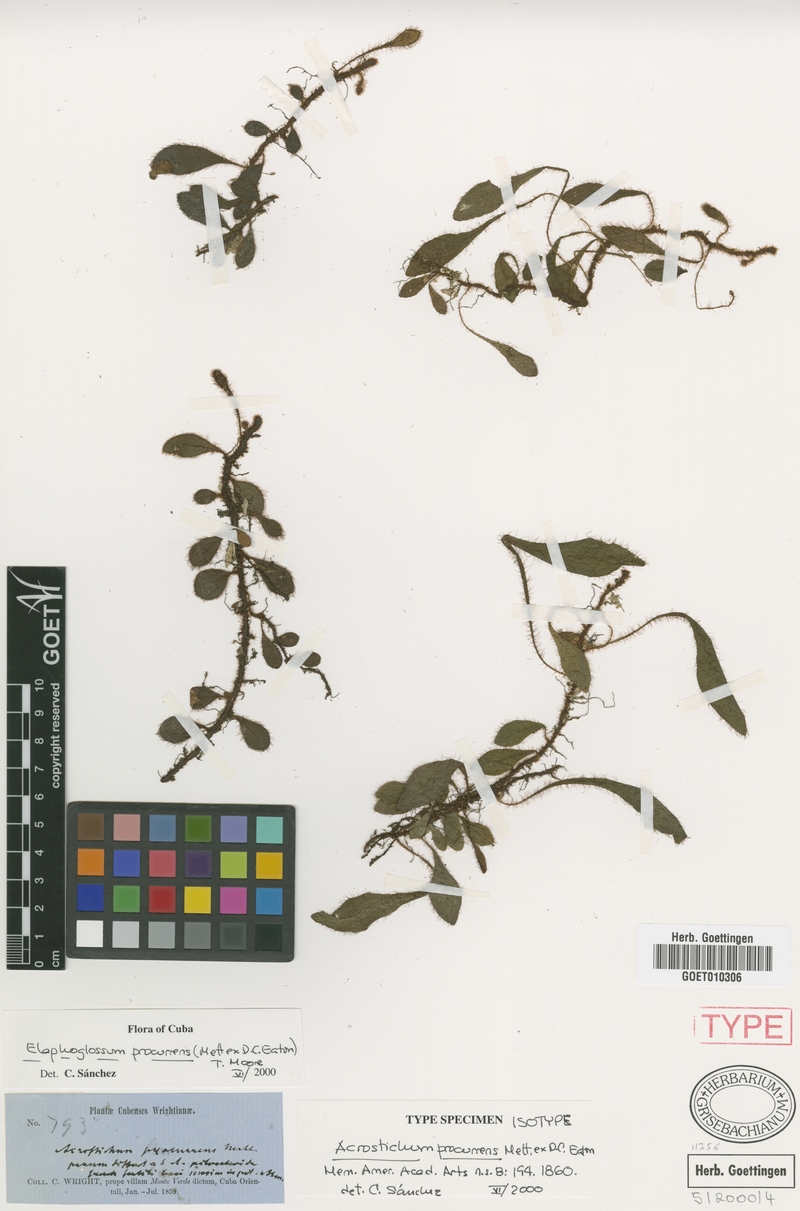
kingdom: Plantae
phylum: Tracheophyta
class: Polypodiopsida
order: Polypodiales
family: Dryopteridaceae
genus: Elaphoglossum
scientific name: Elaphoglossum procurrens
